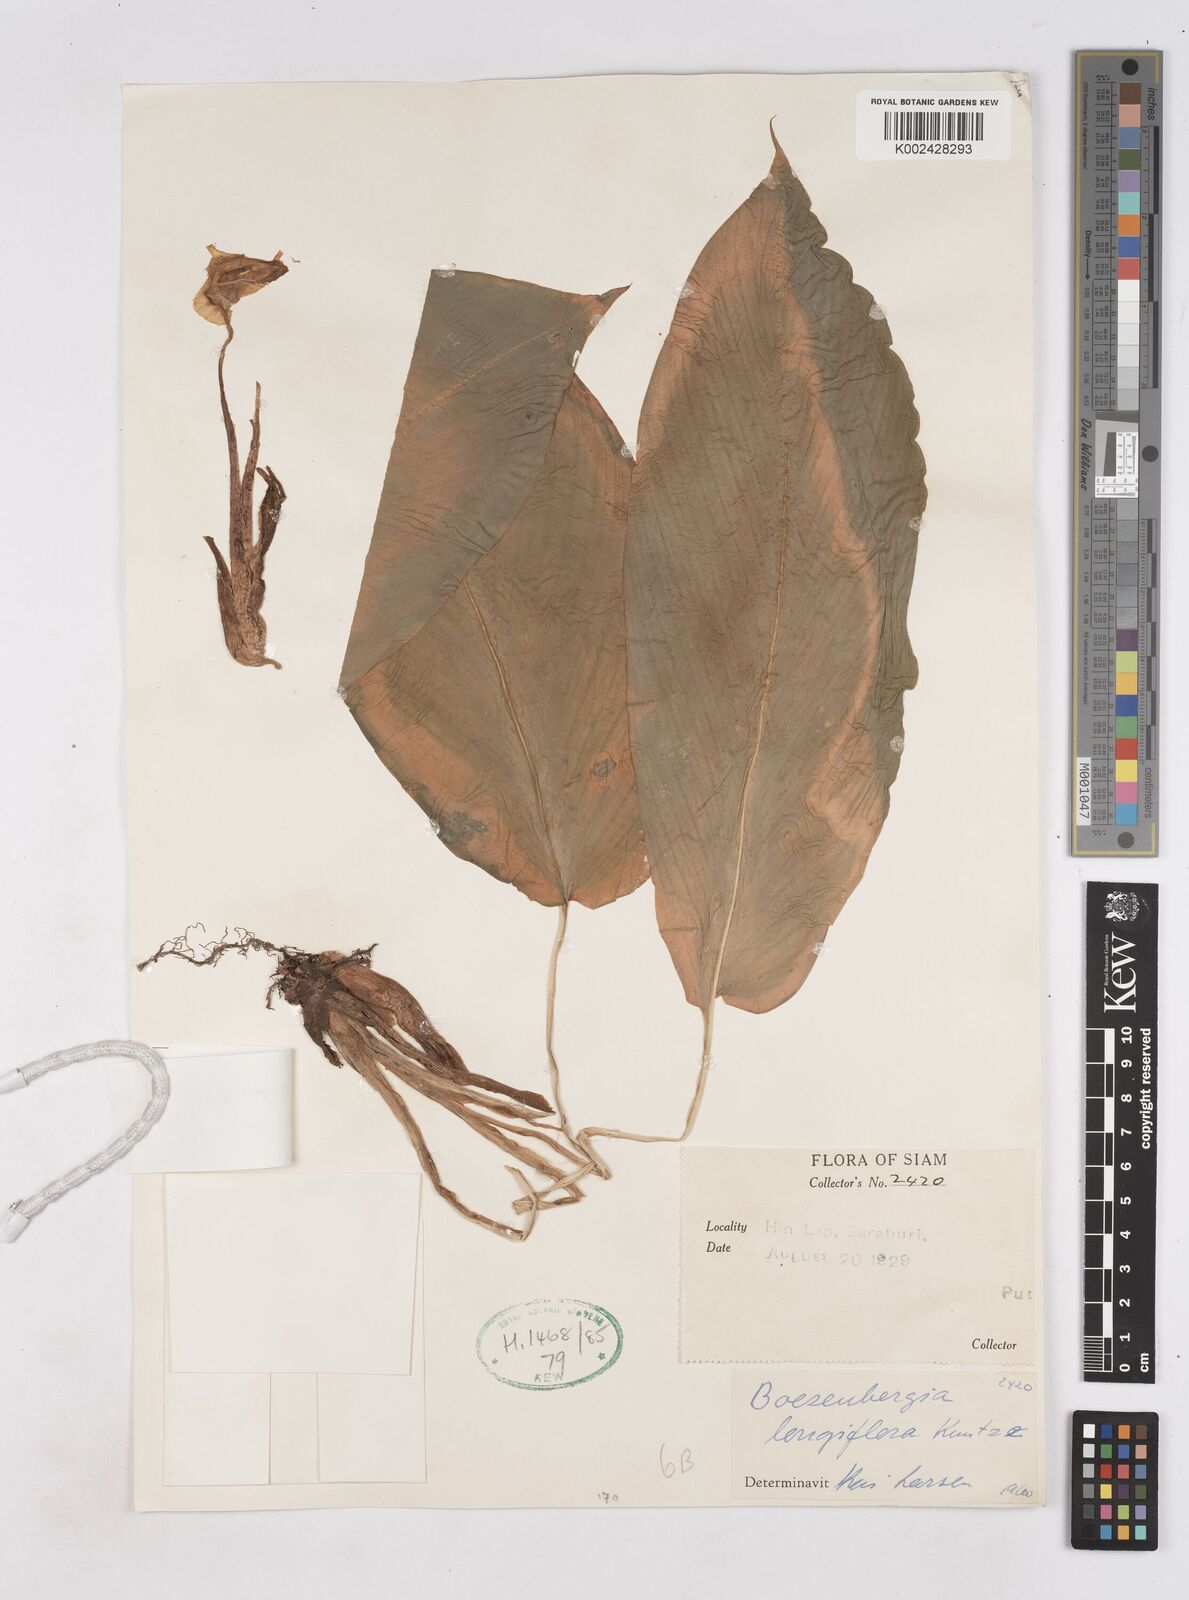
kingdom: Plantae
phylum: Tracheophyta
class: Liliopsida
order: Zingiberales
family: Zingiberaceae
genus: Boesenbergia
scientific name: Boesenbergia longiflora
